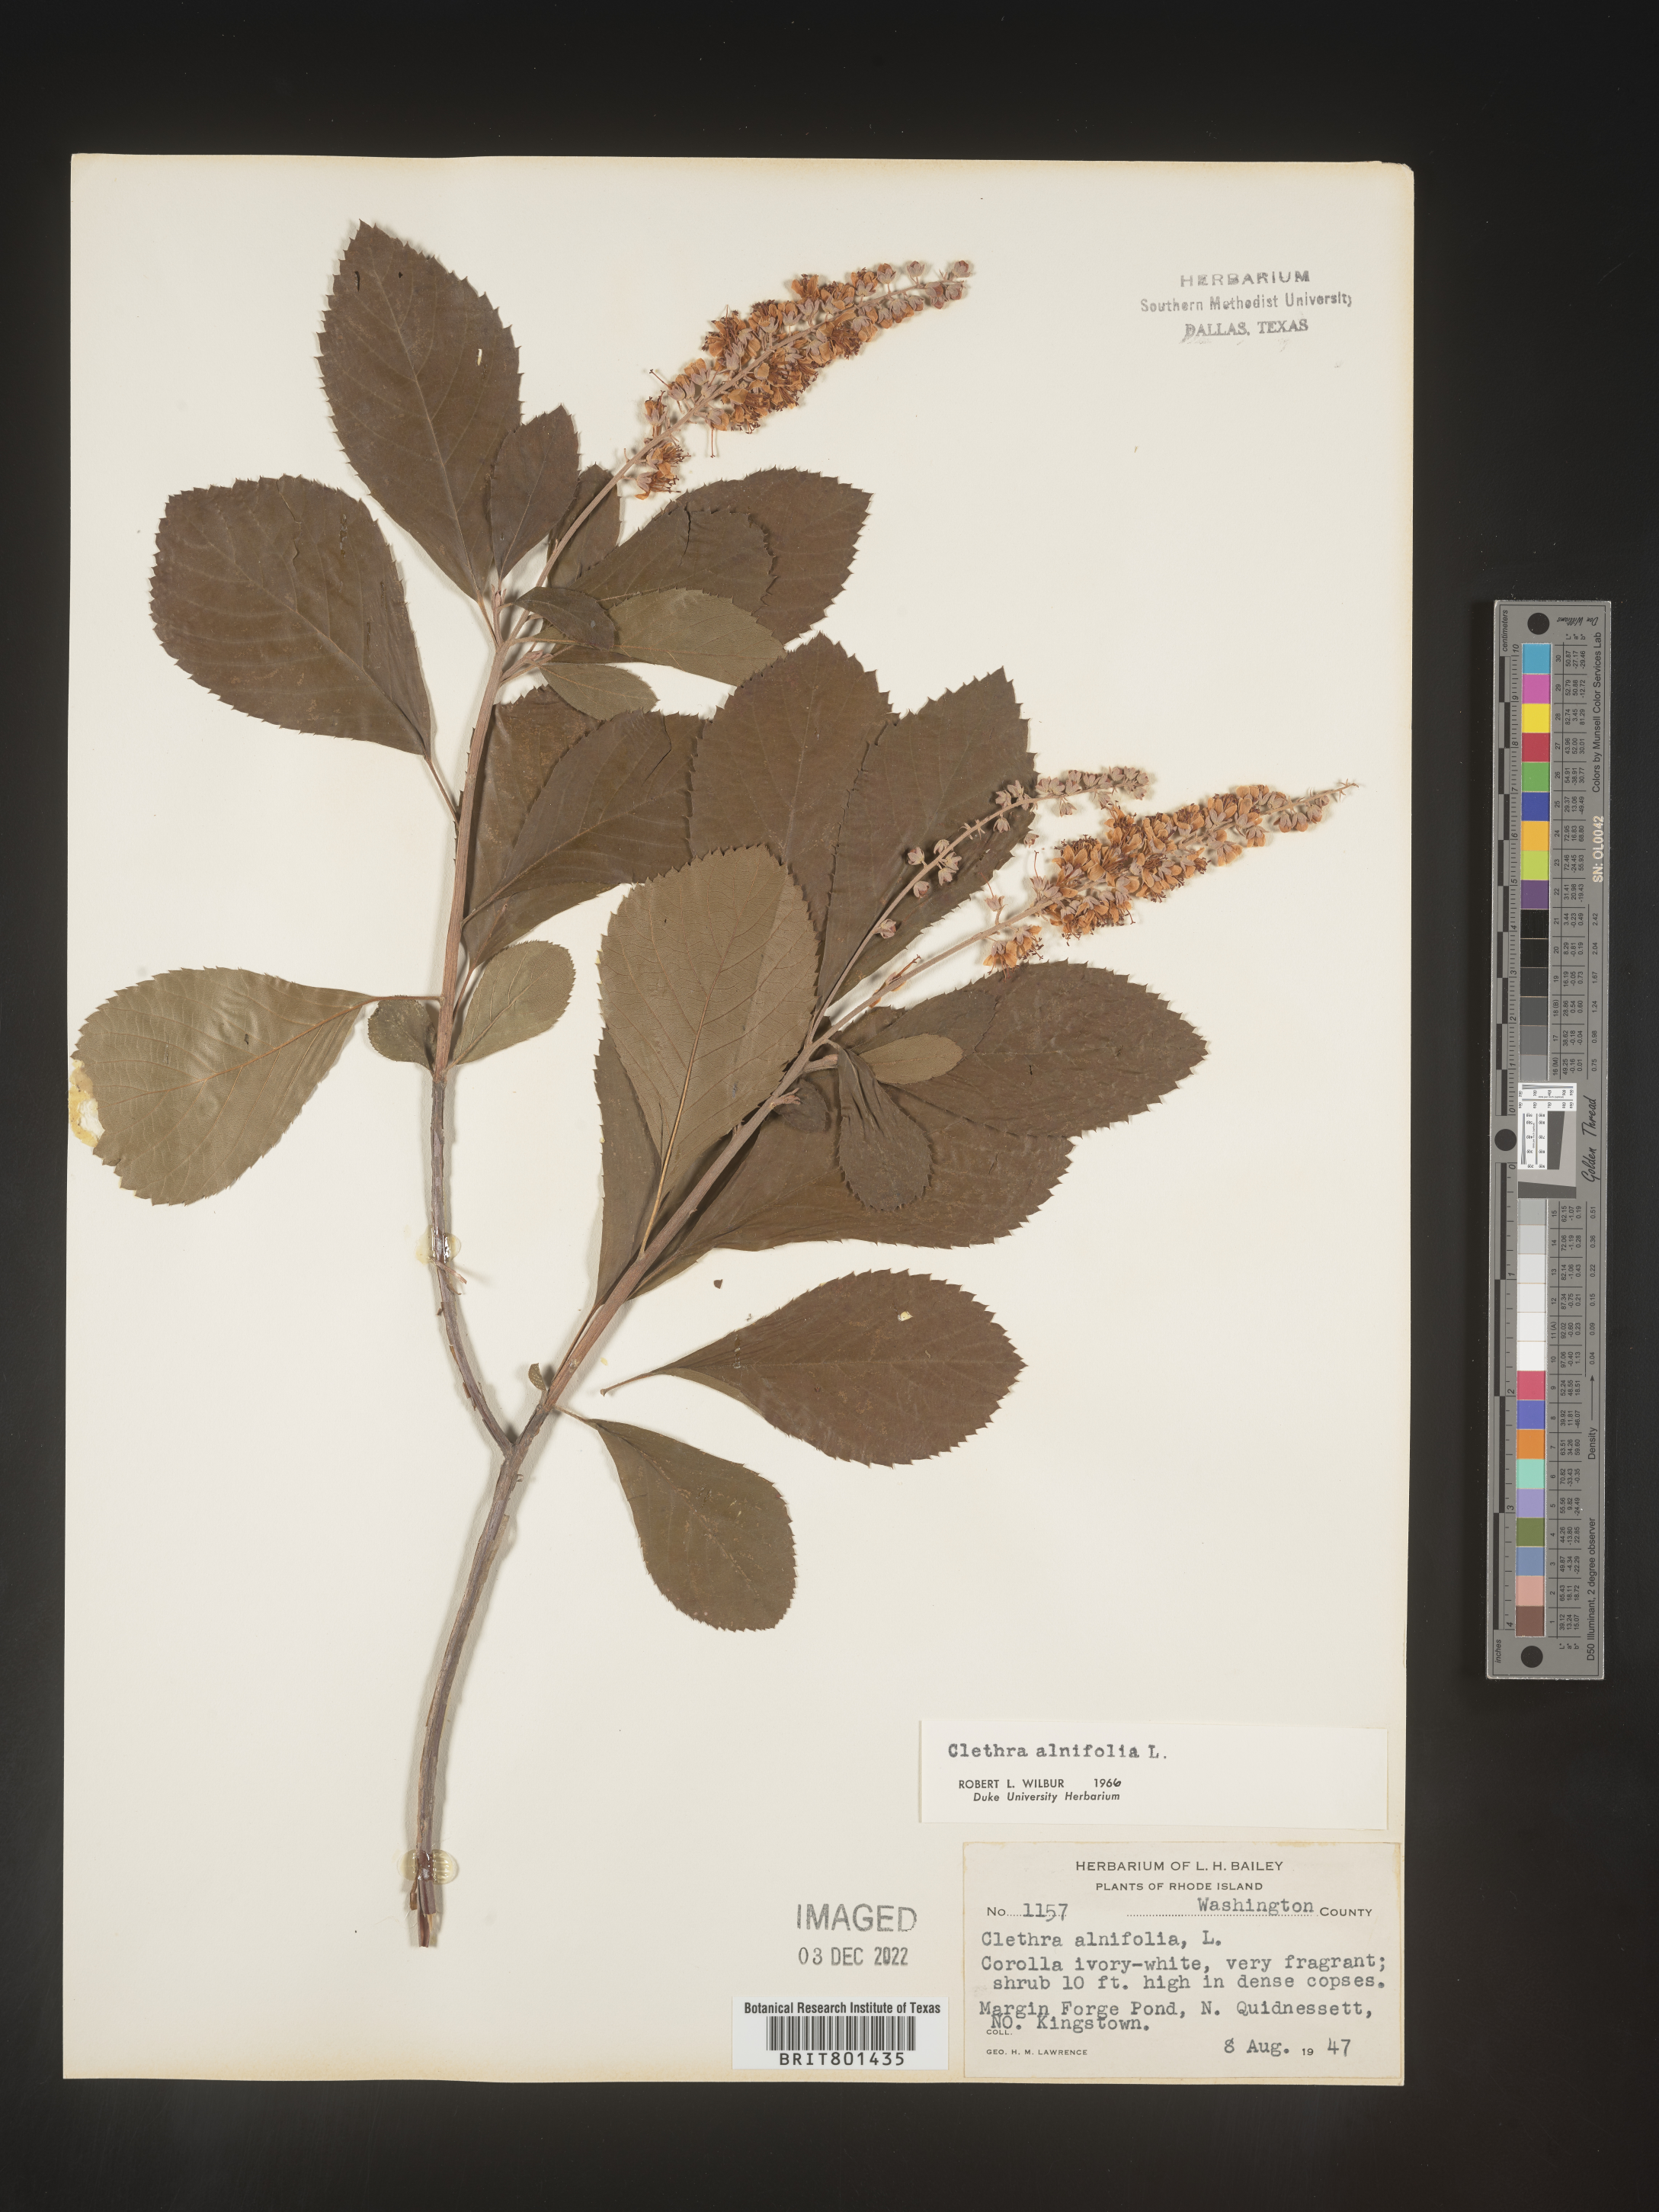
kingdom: Plantae
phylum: Tracheophyta
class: Magnoliopsida
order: Ericales
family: Clethraceae
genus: Clethra
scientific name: Clethra alnifolia
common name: Sweet pepperbush
